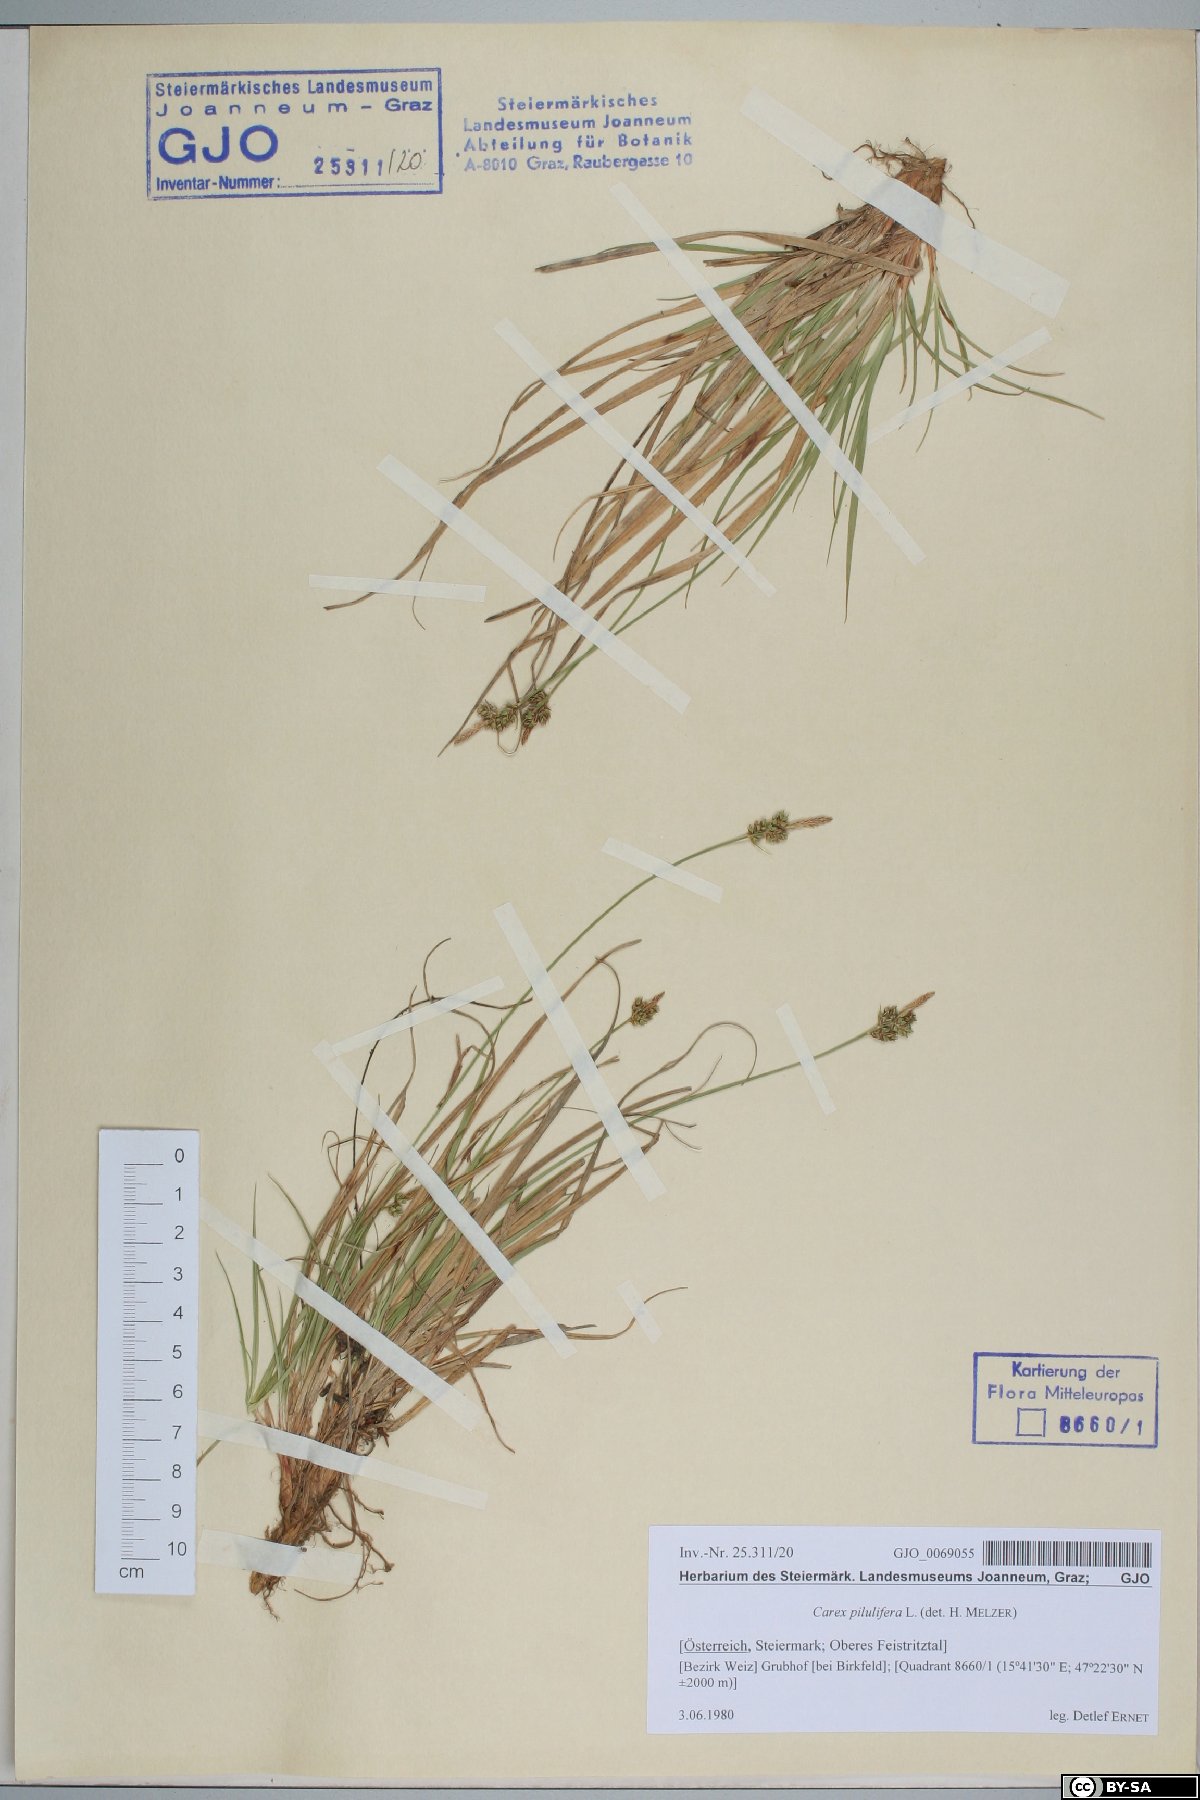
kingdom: Plantae
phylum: Tracheophyta
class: Liliopsida
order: Poales
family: Cyperaceae
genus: Carex
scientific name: Carex pilulifera
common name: Pill sedge
